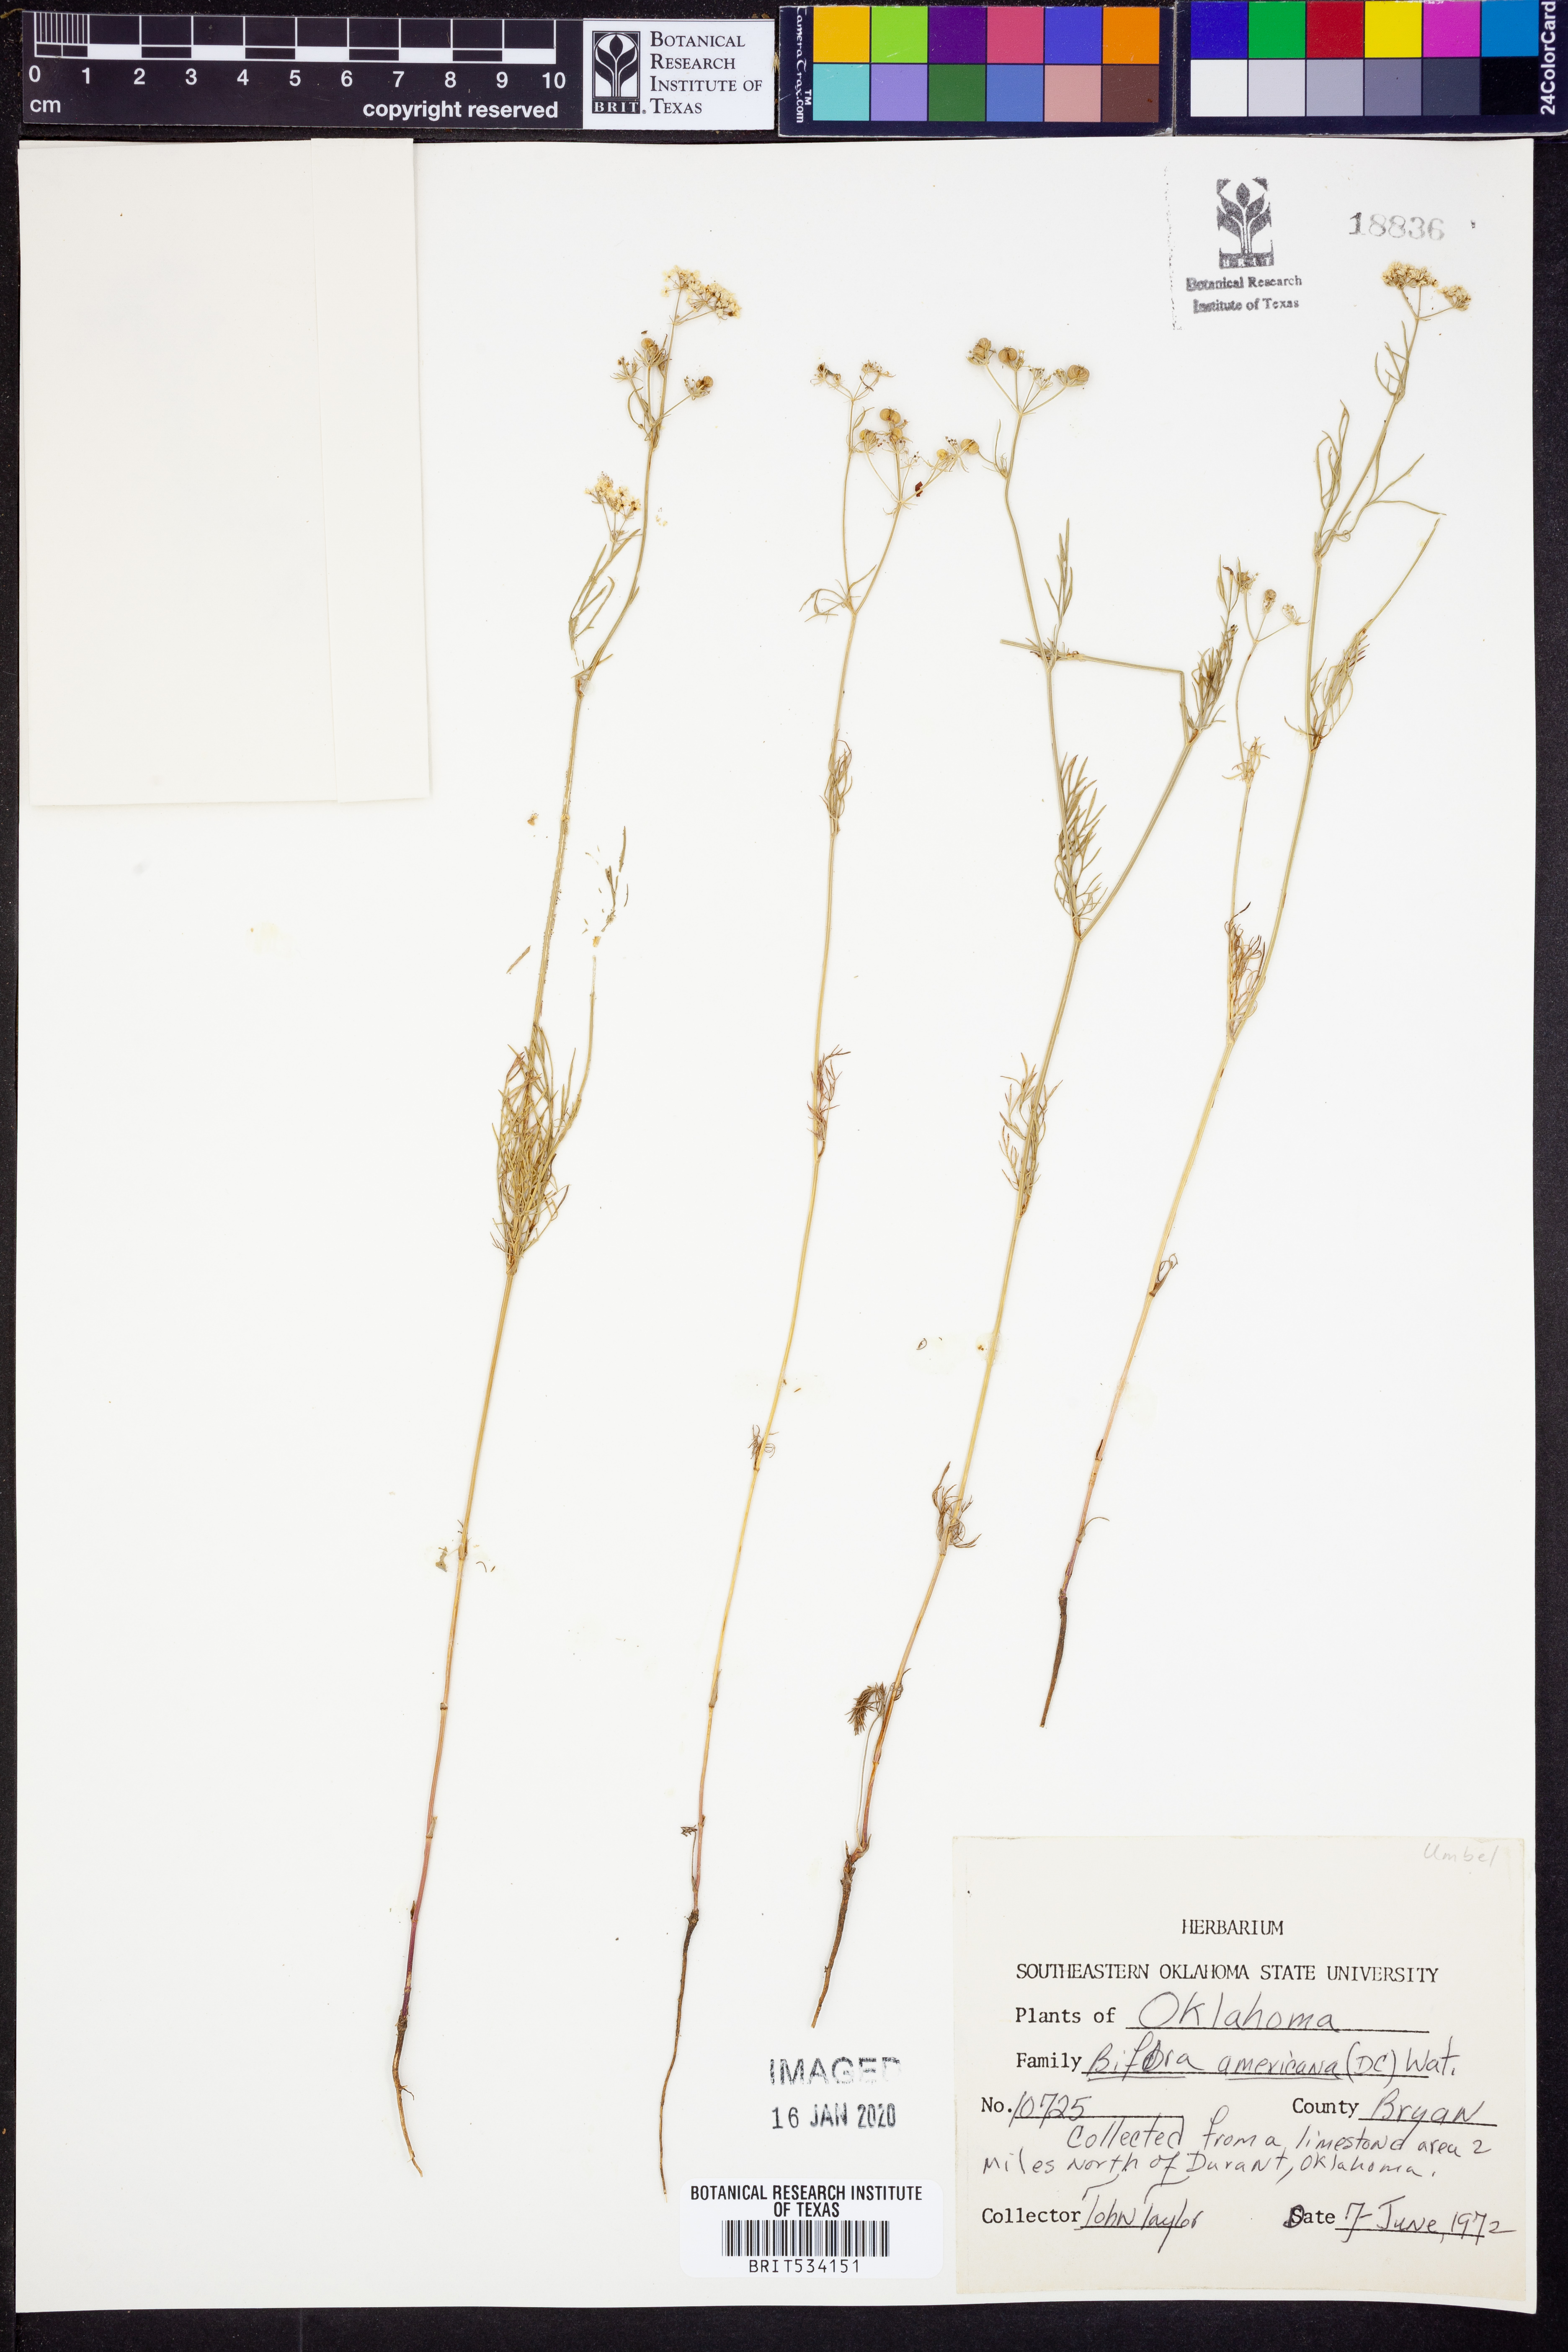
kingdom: Plantae
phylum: Tracheophyta
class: Magnoliopsida
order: Apiales
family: Apiaceae
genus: Atrema
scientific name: Atrema americanum
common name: Prairie-bishop
